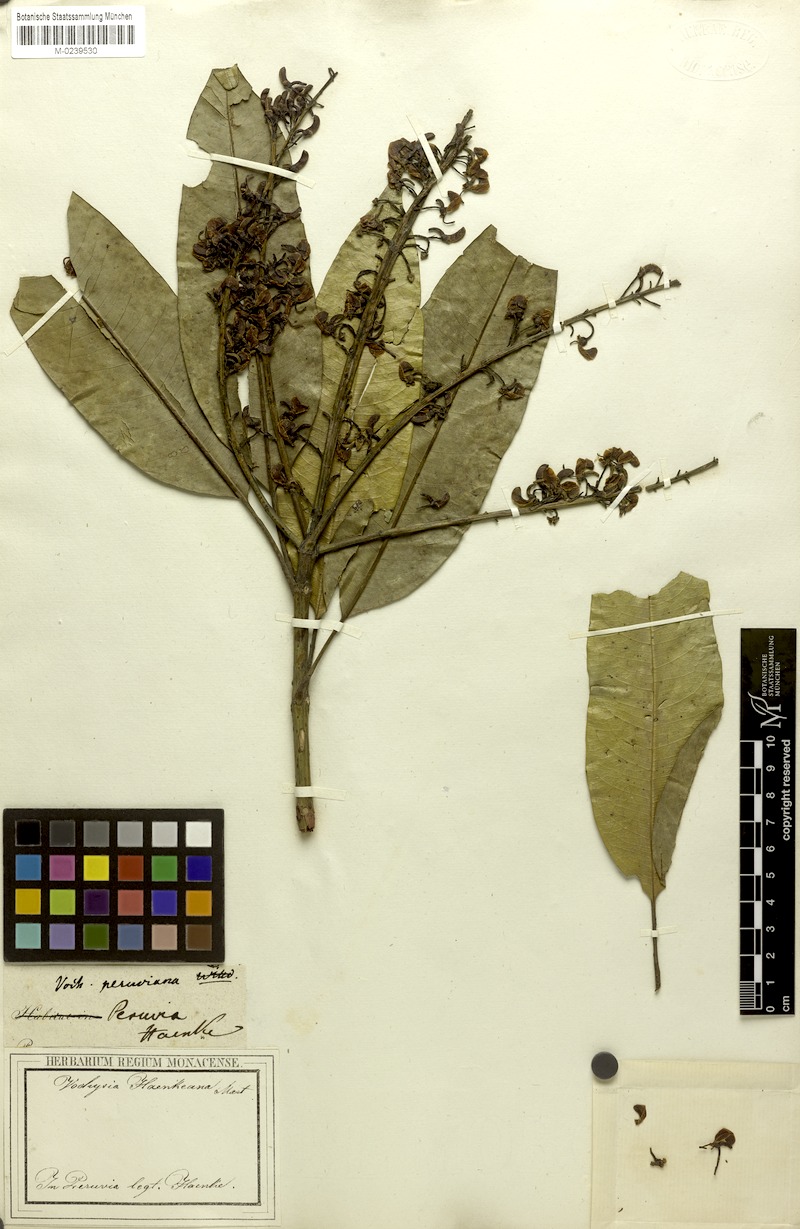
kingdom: Plantae
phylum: Tracheophyta
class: Magnoliopsida
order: Myrtales
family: Vochysiaceae
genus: Vochysia
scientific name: Vochysia haenkeana
